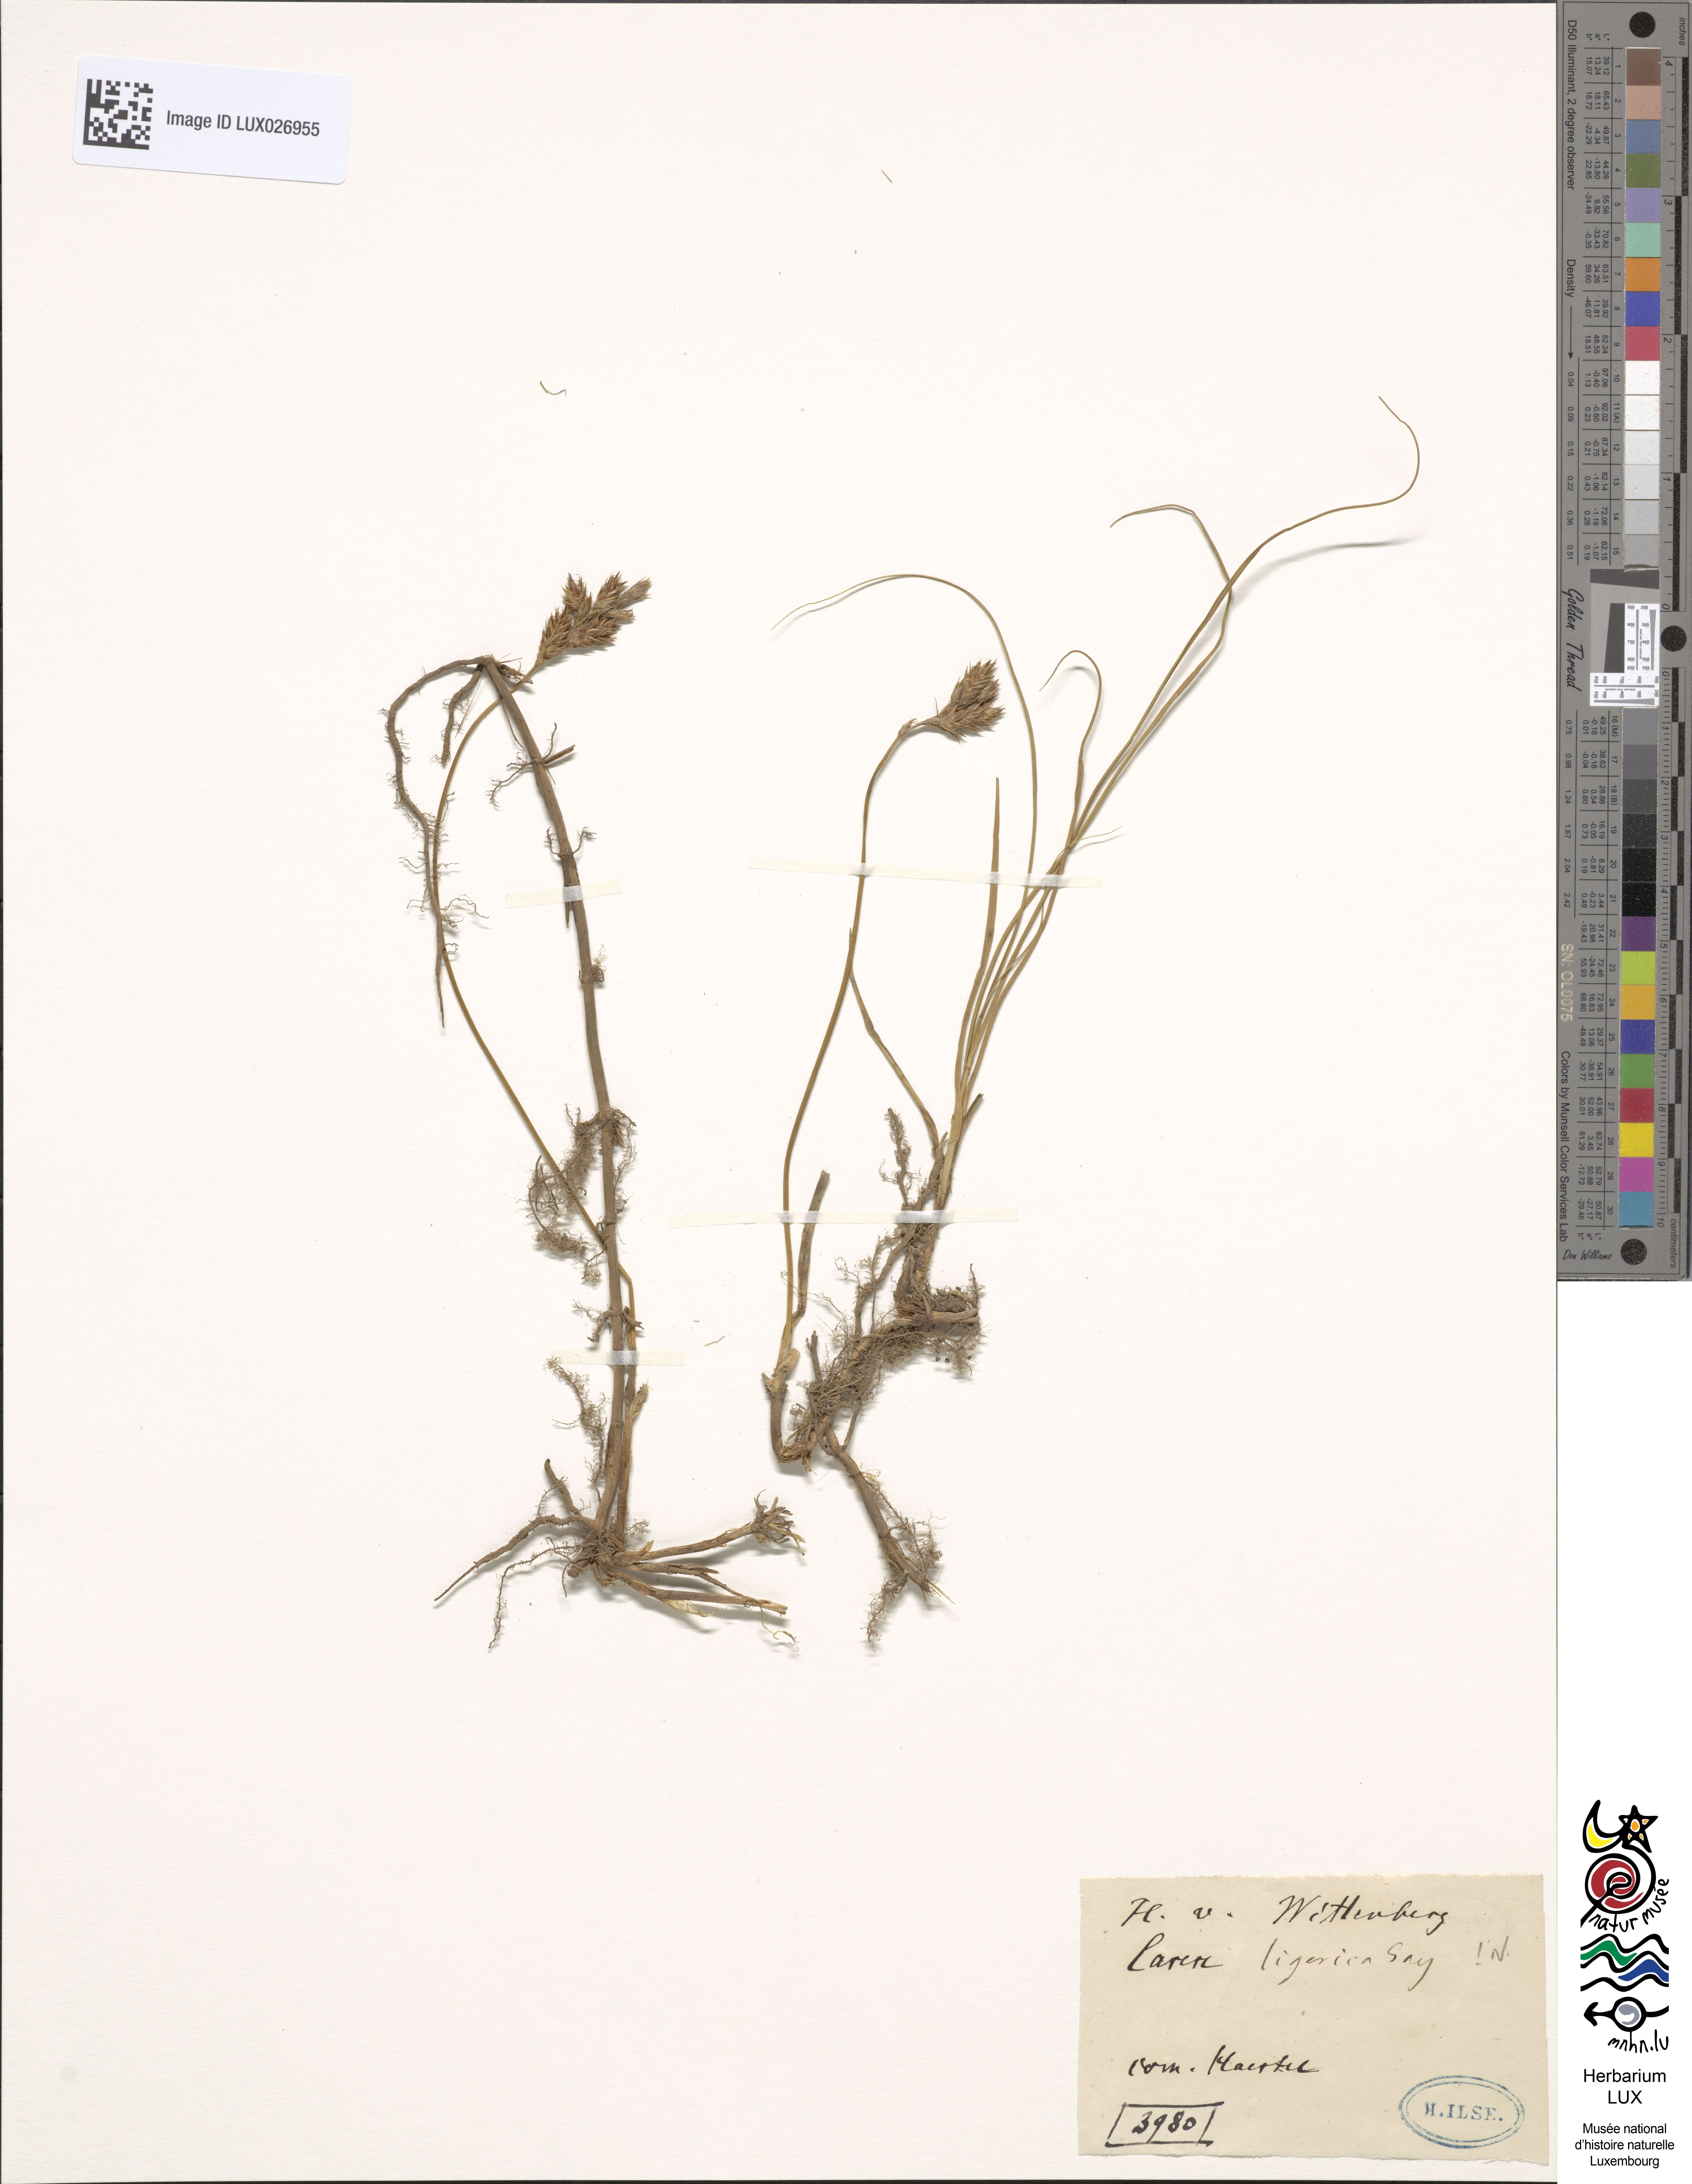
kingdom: Plantae
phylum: Tracheophyta
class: Liliopsida
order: Poales
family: Cyperaceae
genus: Carex
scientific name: Carex colchica
